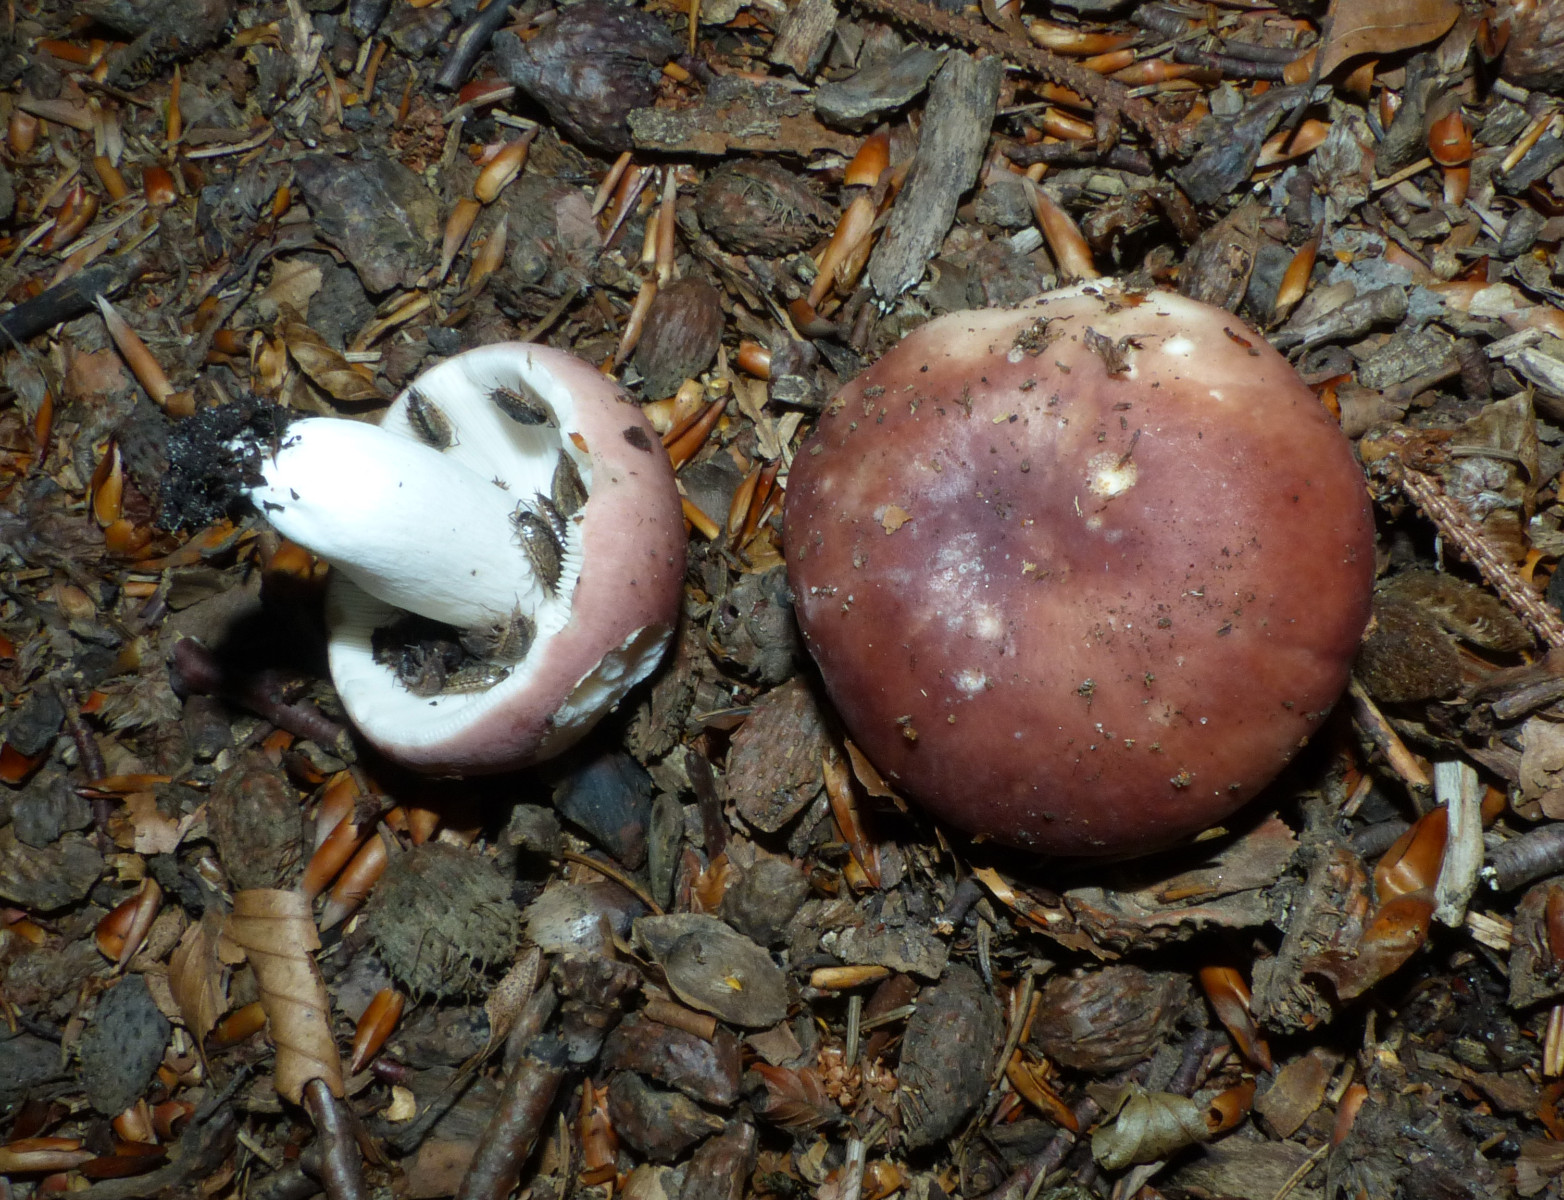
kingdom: Fungi
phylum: Basidiomycota
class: Agaricomycetes
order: Russulales
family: Russulaceae
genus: Russula
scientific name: Russula vesca
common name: spiselig skørhat
